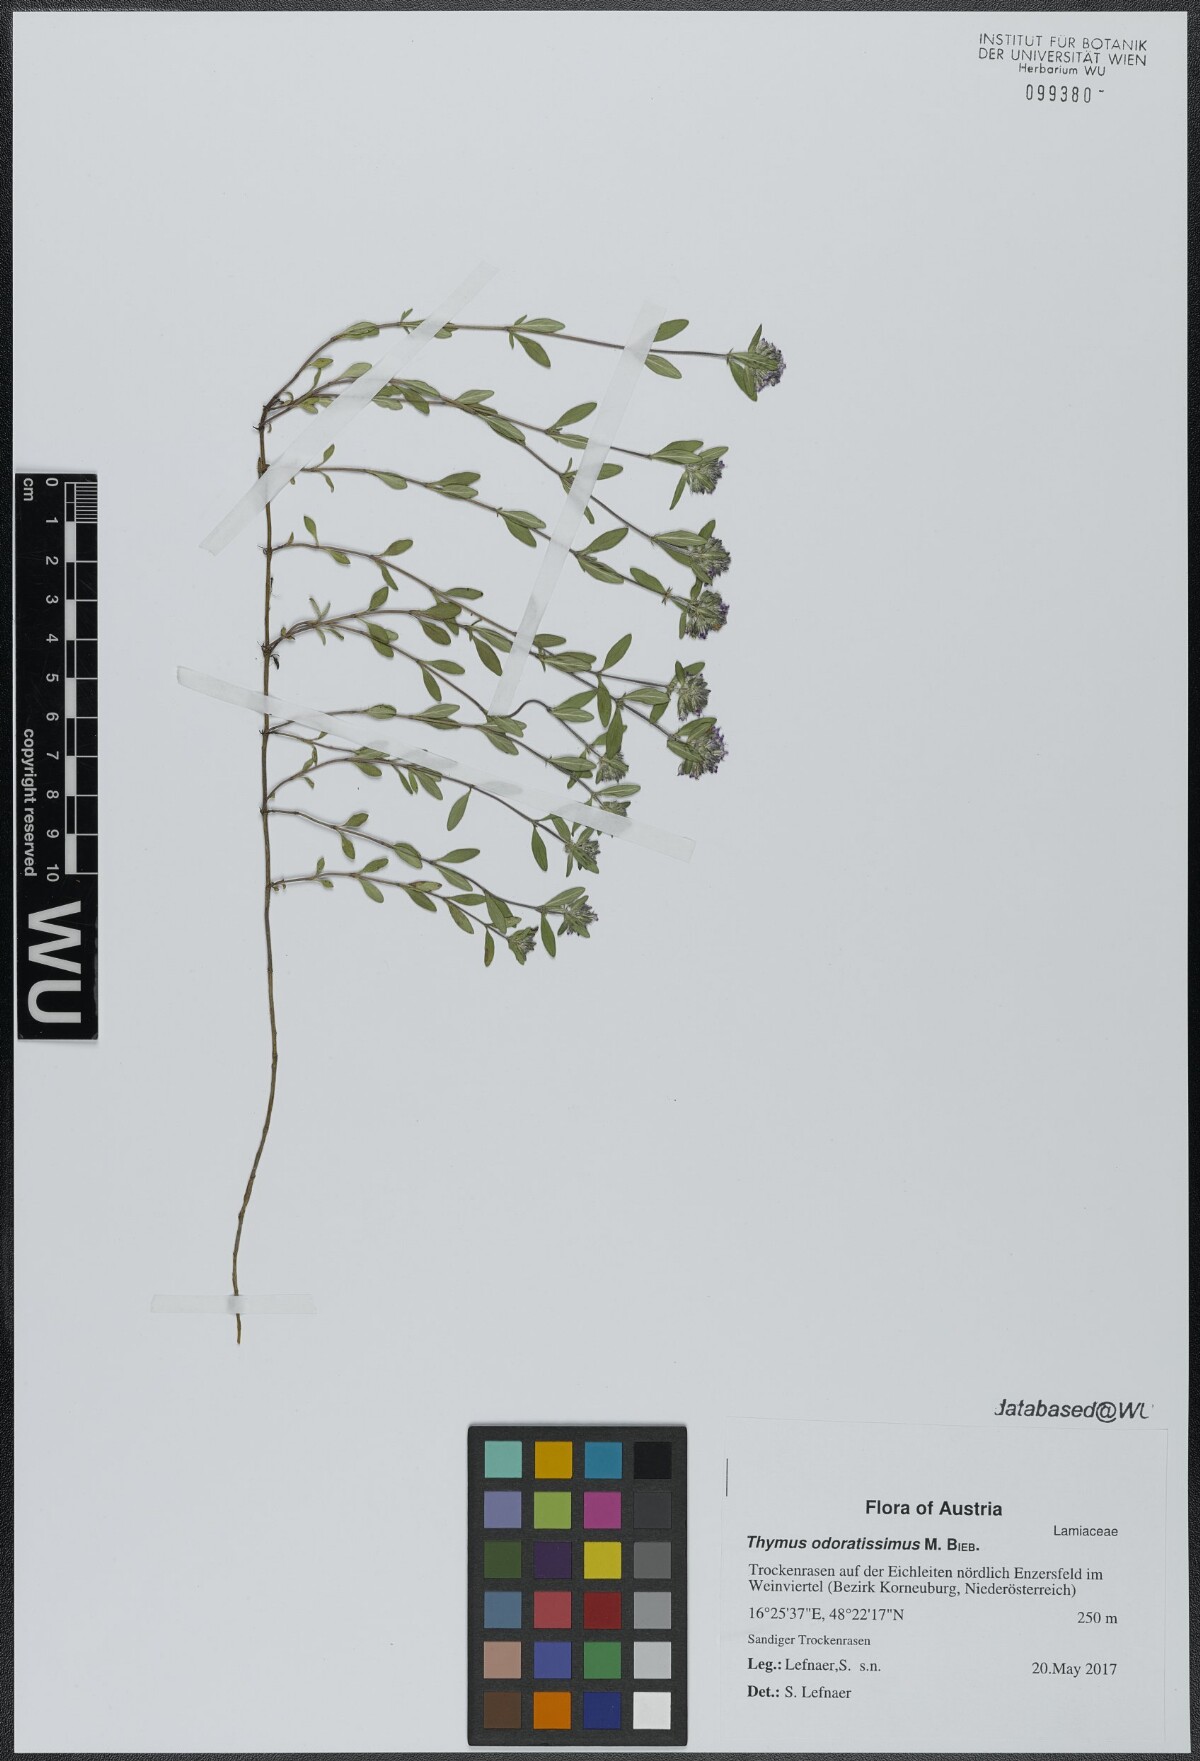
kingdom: Plantae
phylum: Tracheophyta
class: Magnoliopsida
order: Lamiales
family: Lamiaceae
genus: Thymus
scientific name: Thymus odoratissimus
